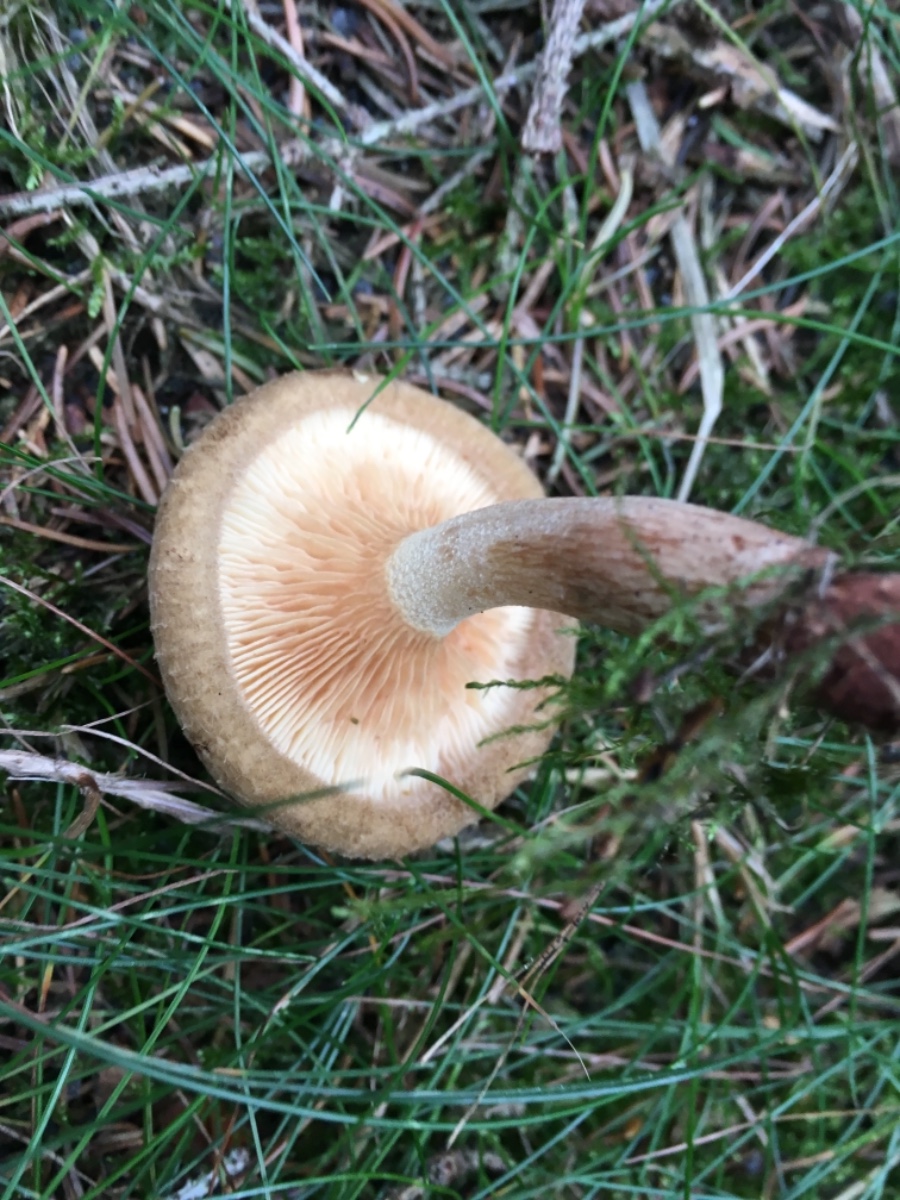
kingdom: Fungi
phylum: Basidiomycota
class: Agaricomycetes
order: Boletales
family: Paxillaceae
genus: Paxillus
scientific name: Paxillus involutus
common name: almindelig netbladhat
